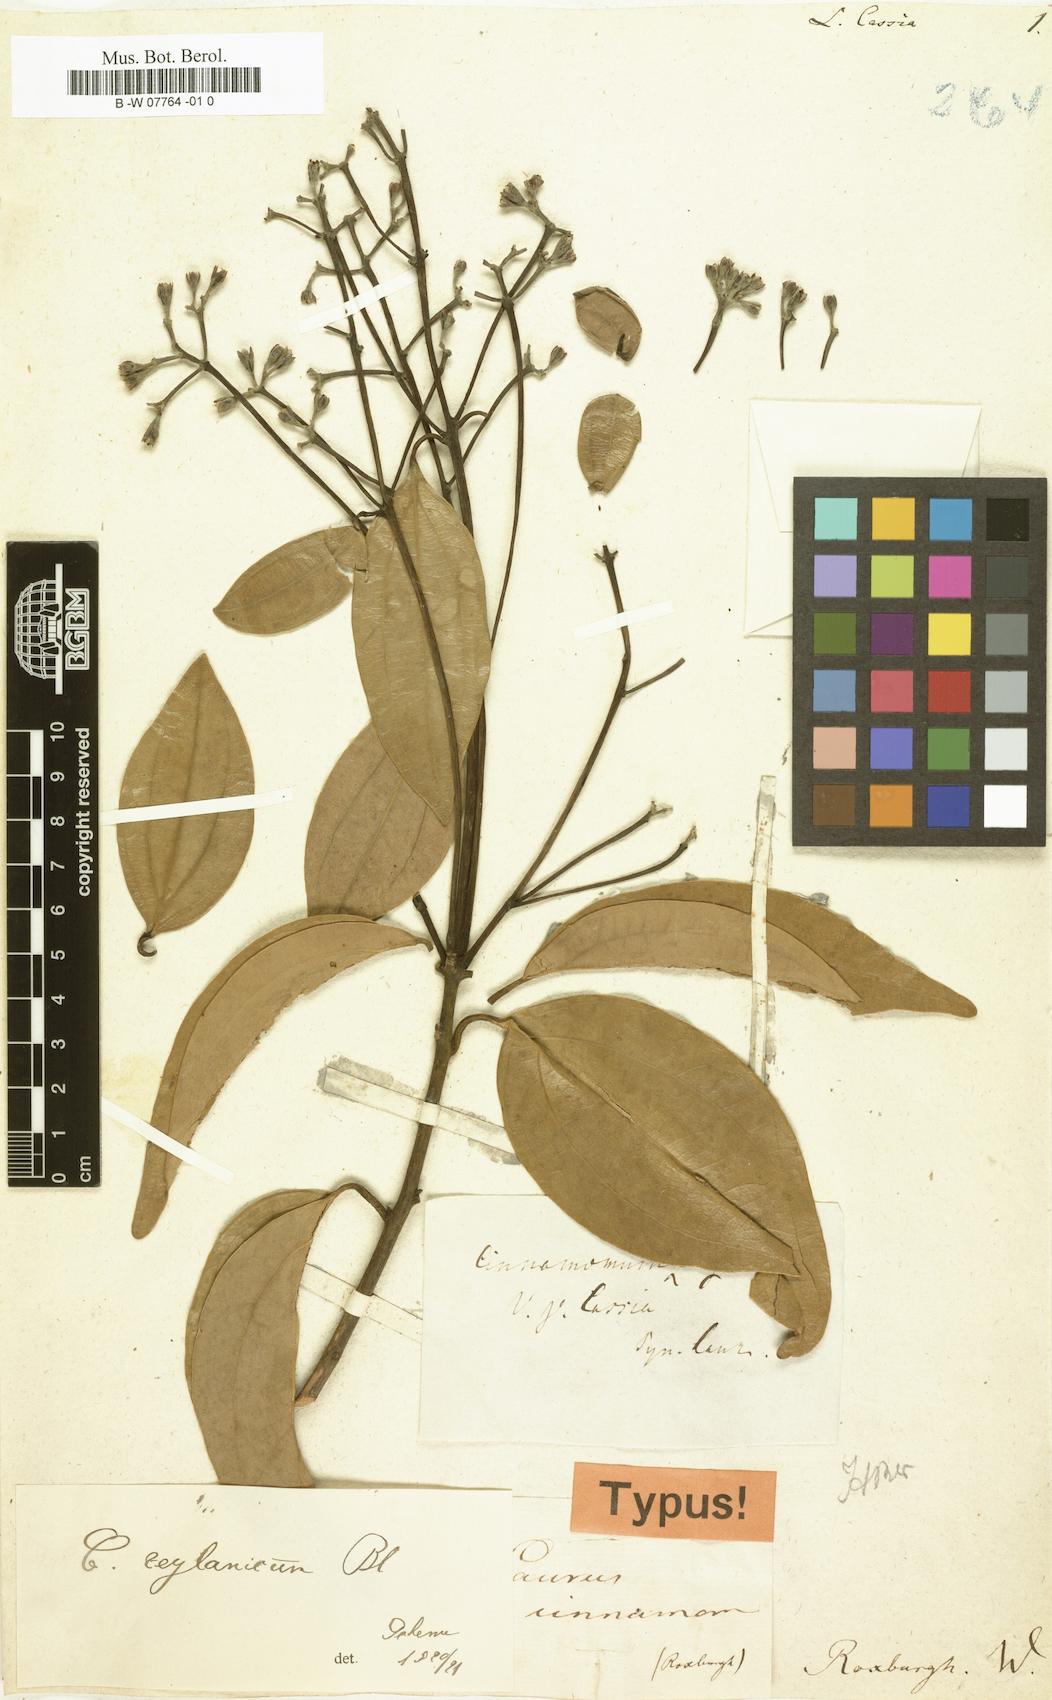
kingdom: Plantae
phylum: Tracheophyta
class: Magnoliopsida
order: Laurales
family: Lauraceae
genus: Neolitsea
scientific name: Neolitsea cassia
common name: Laurel
